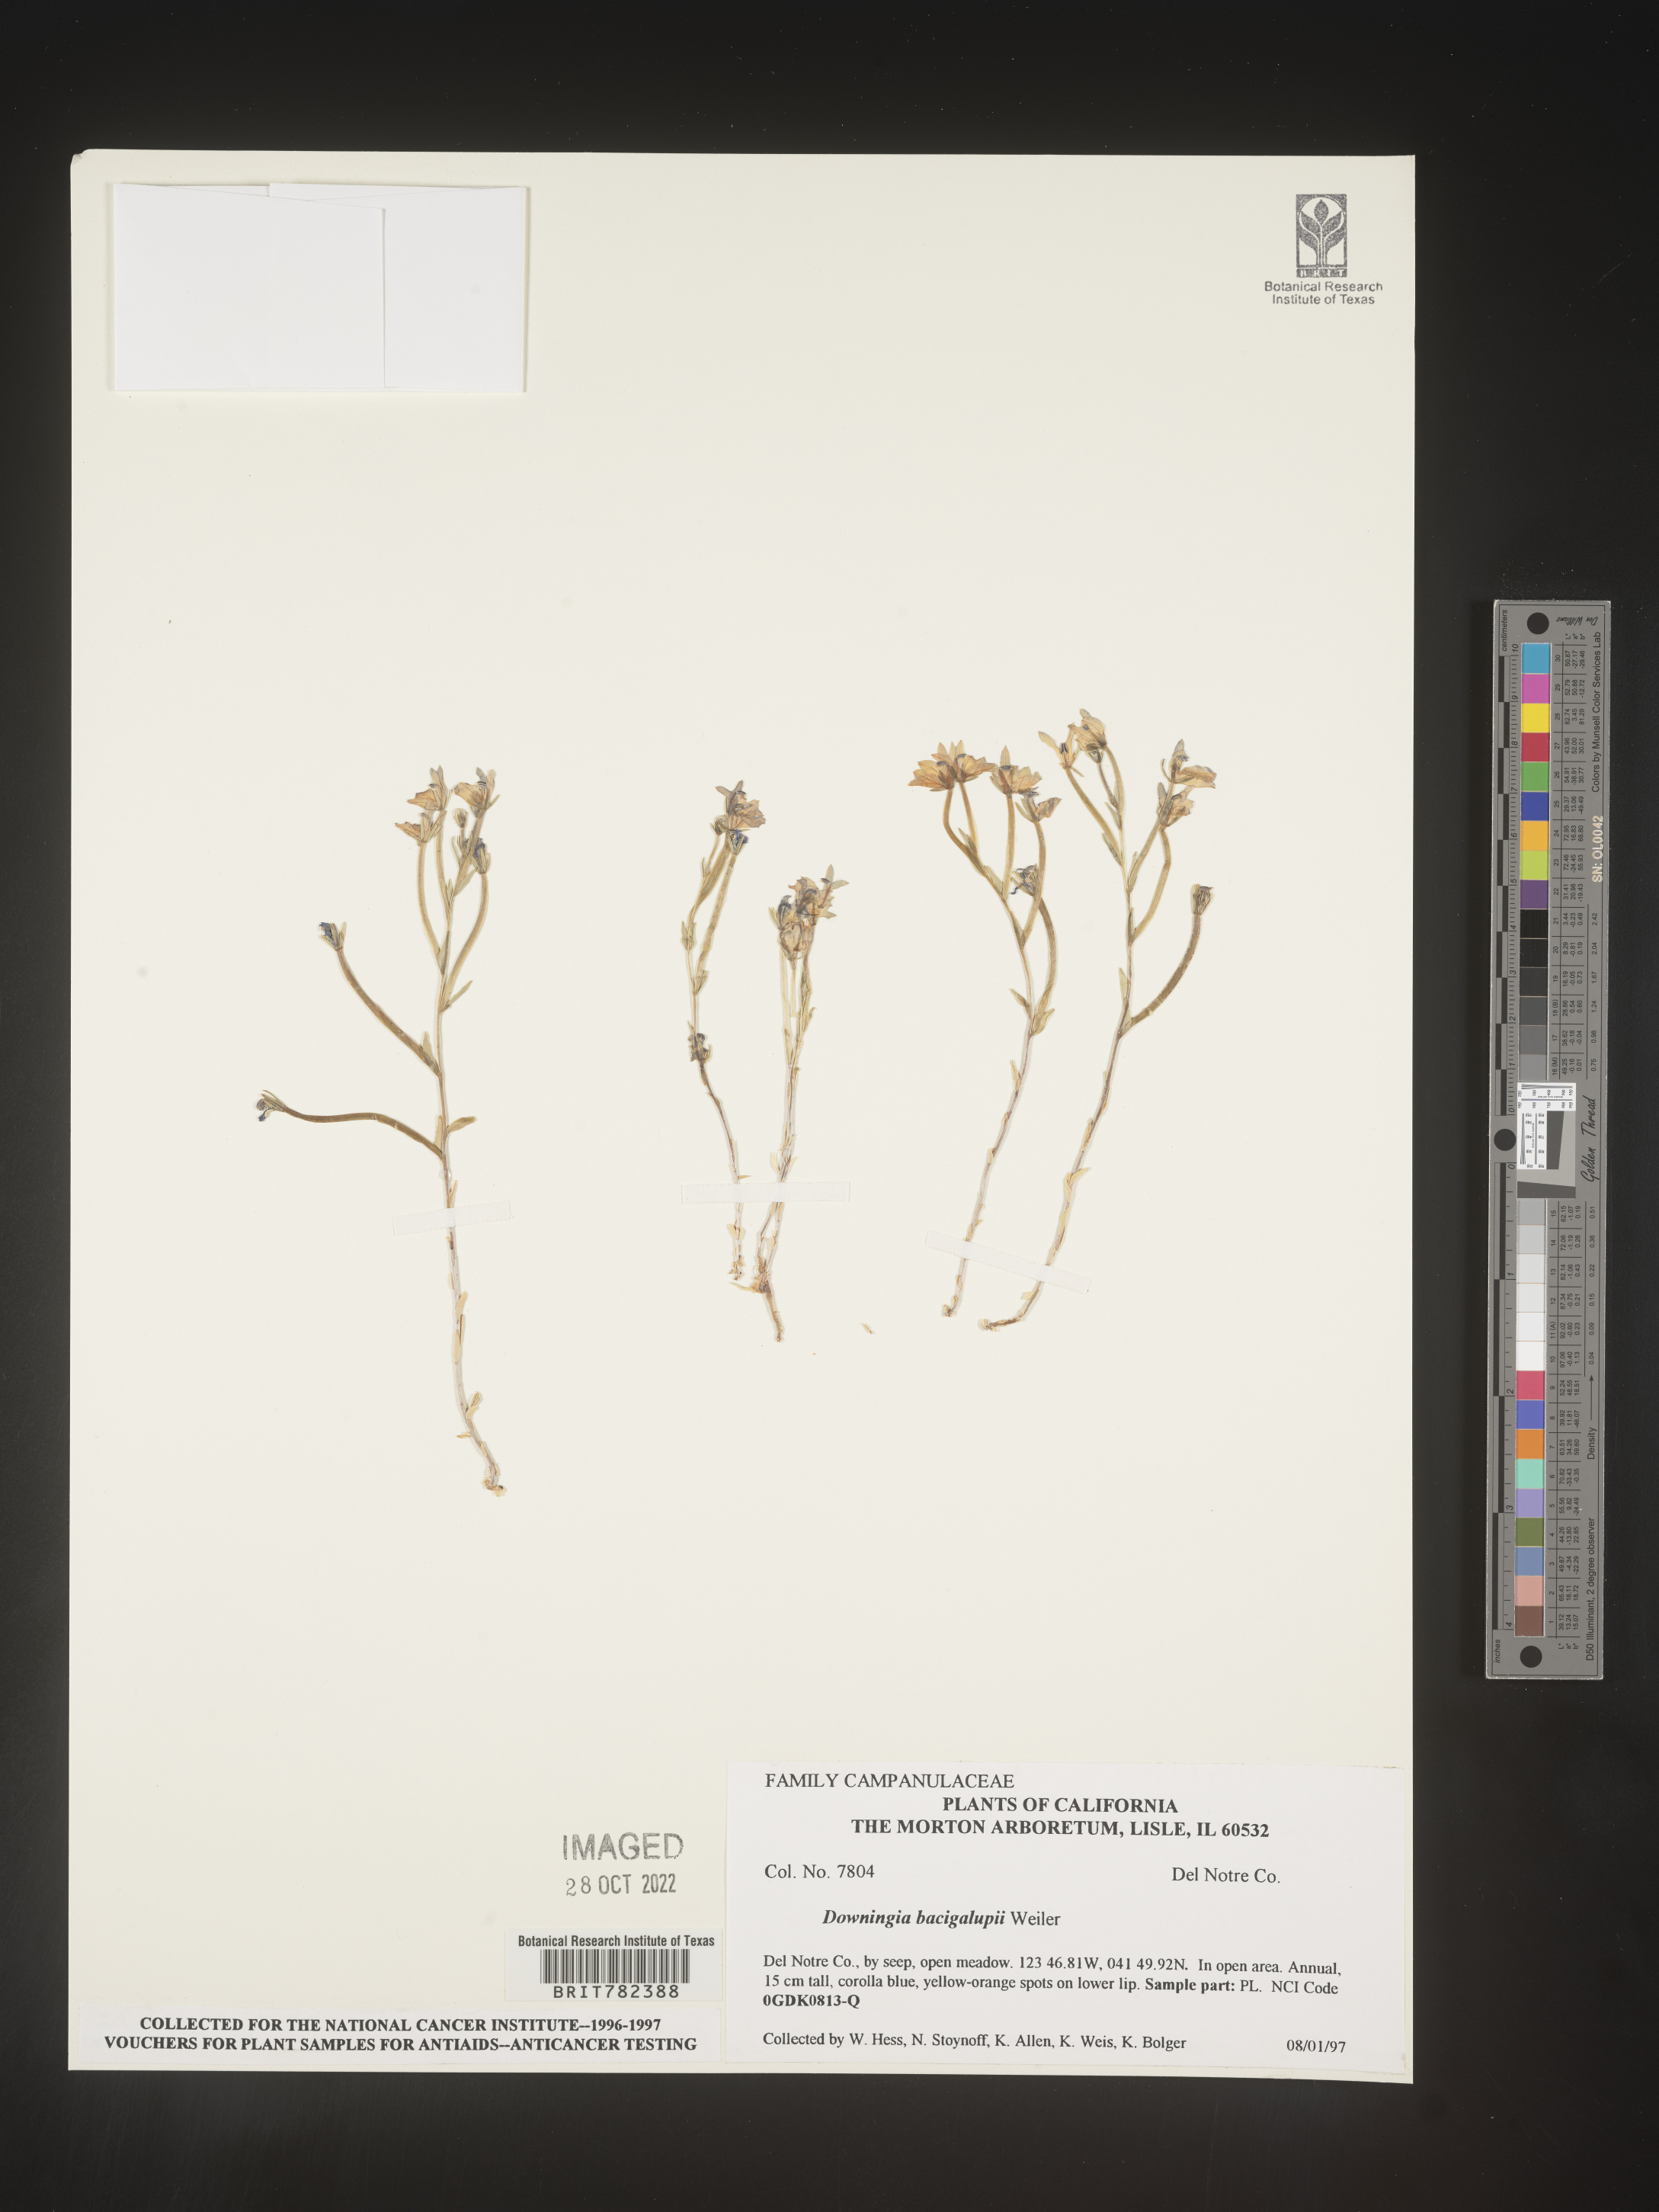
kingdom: Plantae
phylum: Tracheophyta
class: Magnoliopsida
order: Asterales
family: Campanulaceae
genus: Downingia
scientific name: Downingia
